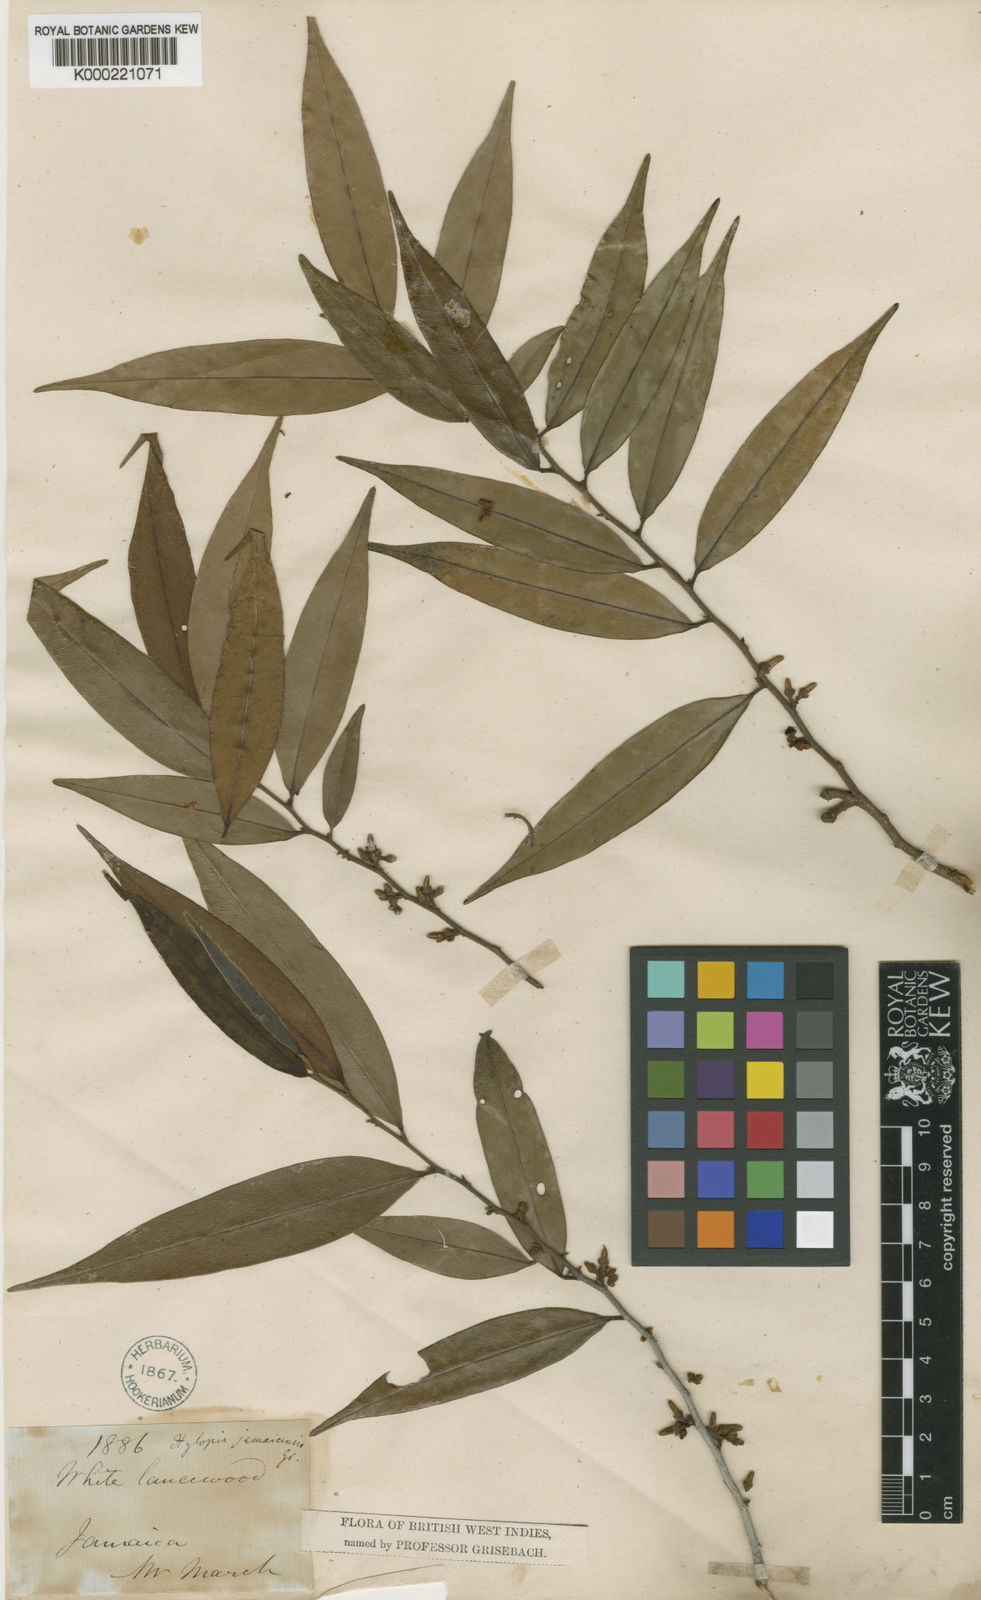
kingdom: Plantae
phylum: Tracheophyta
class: Magnoliopsida
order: Magnoliales
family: Annonaceae
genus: Xylopia
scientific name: Xylopia muricata
